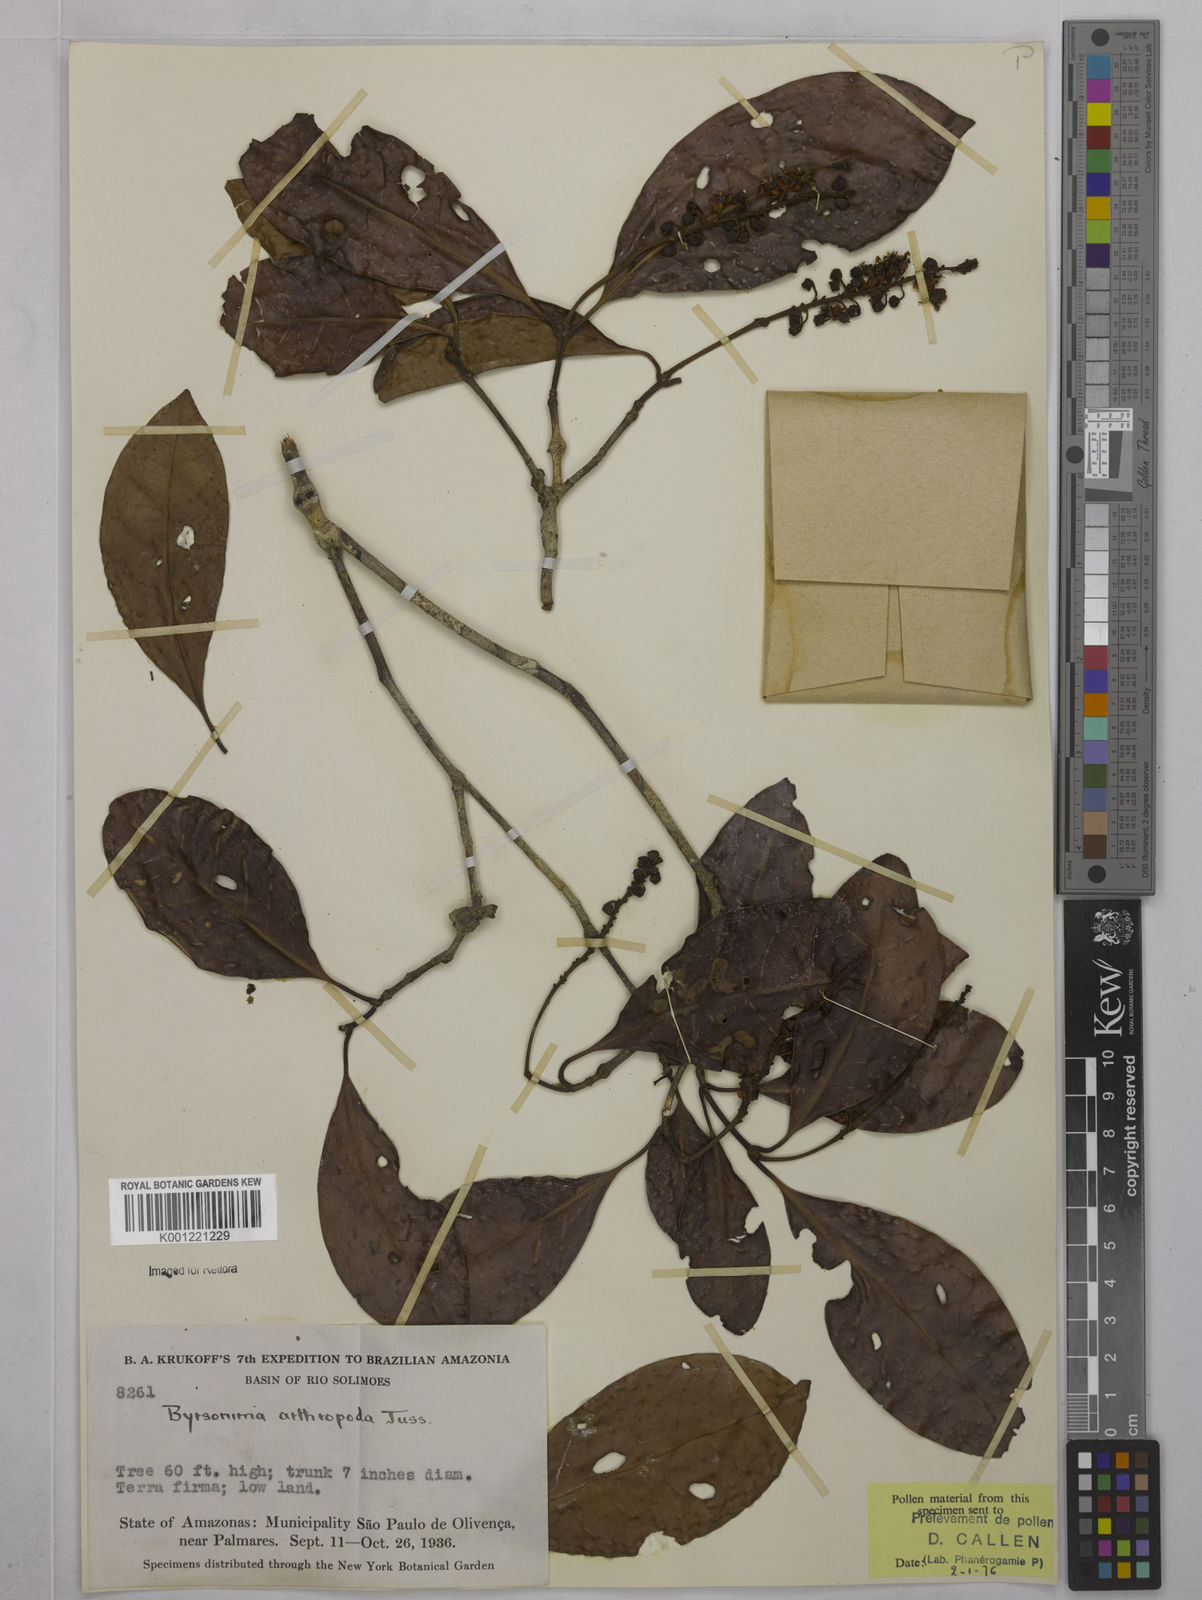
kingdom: Plantae
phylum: Tracheophyta
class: Magnoliopsida
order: Malpighiales
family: Malpighiaceae
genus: Byrsonima
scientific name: Byrsonima arthropoda
